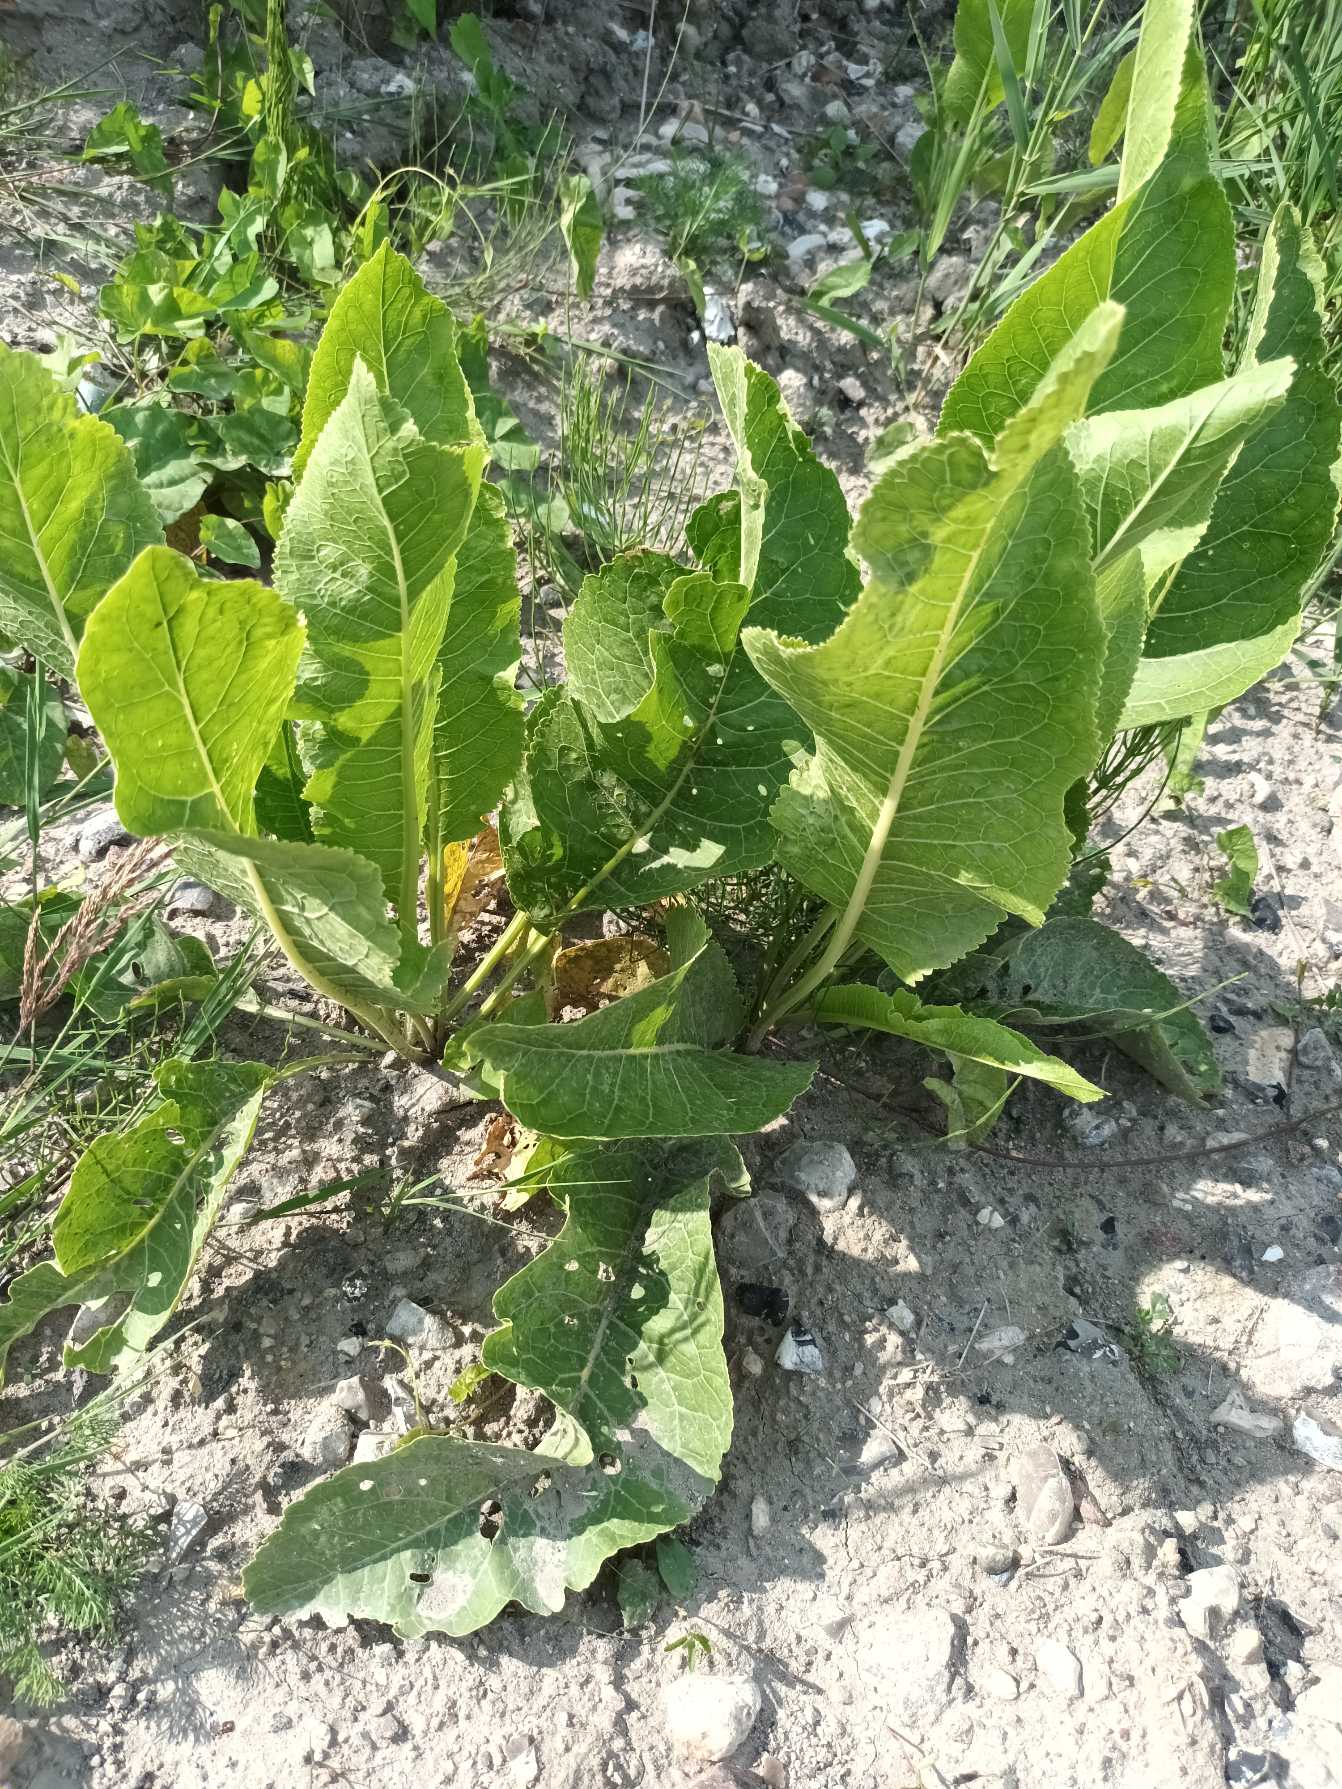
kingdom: Plantae
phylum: Tracheophyta
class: Magnoliopsida
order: Brassicales
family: Brassicaceae
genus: Armoracia
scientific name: Armoracia rusticana
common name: Peberrod
